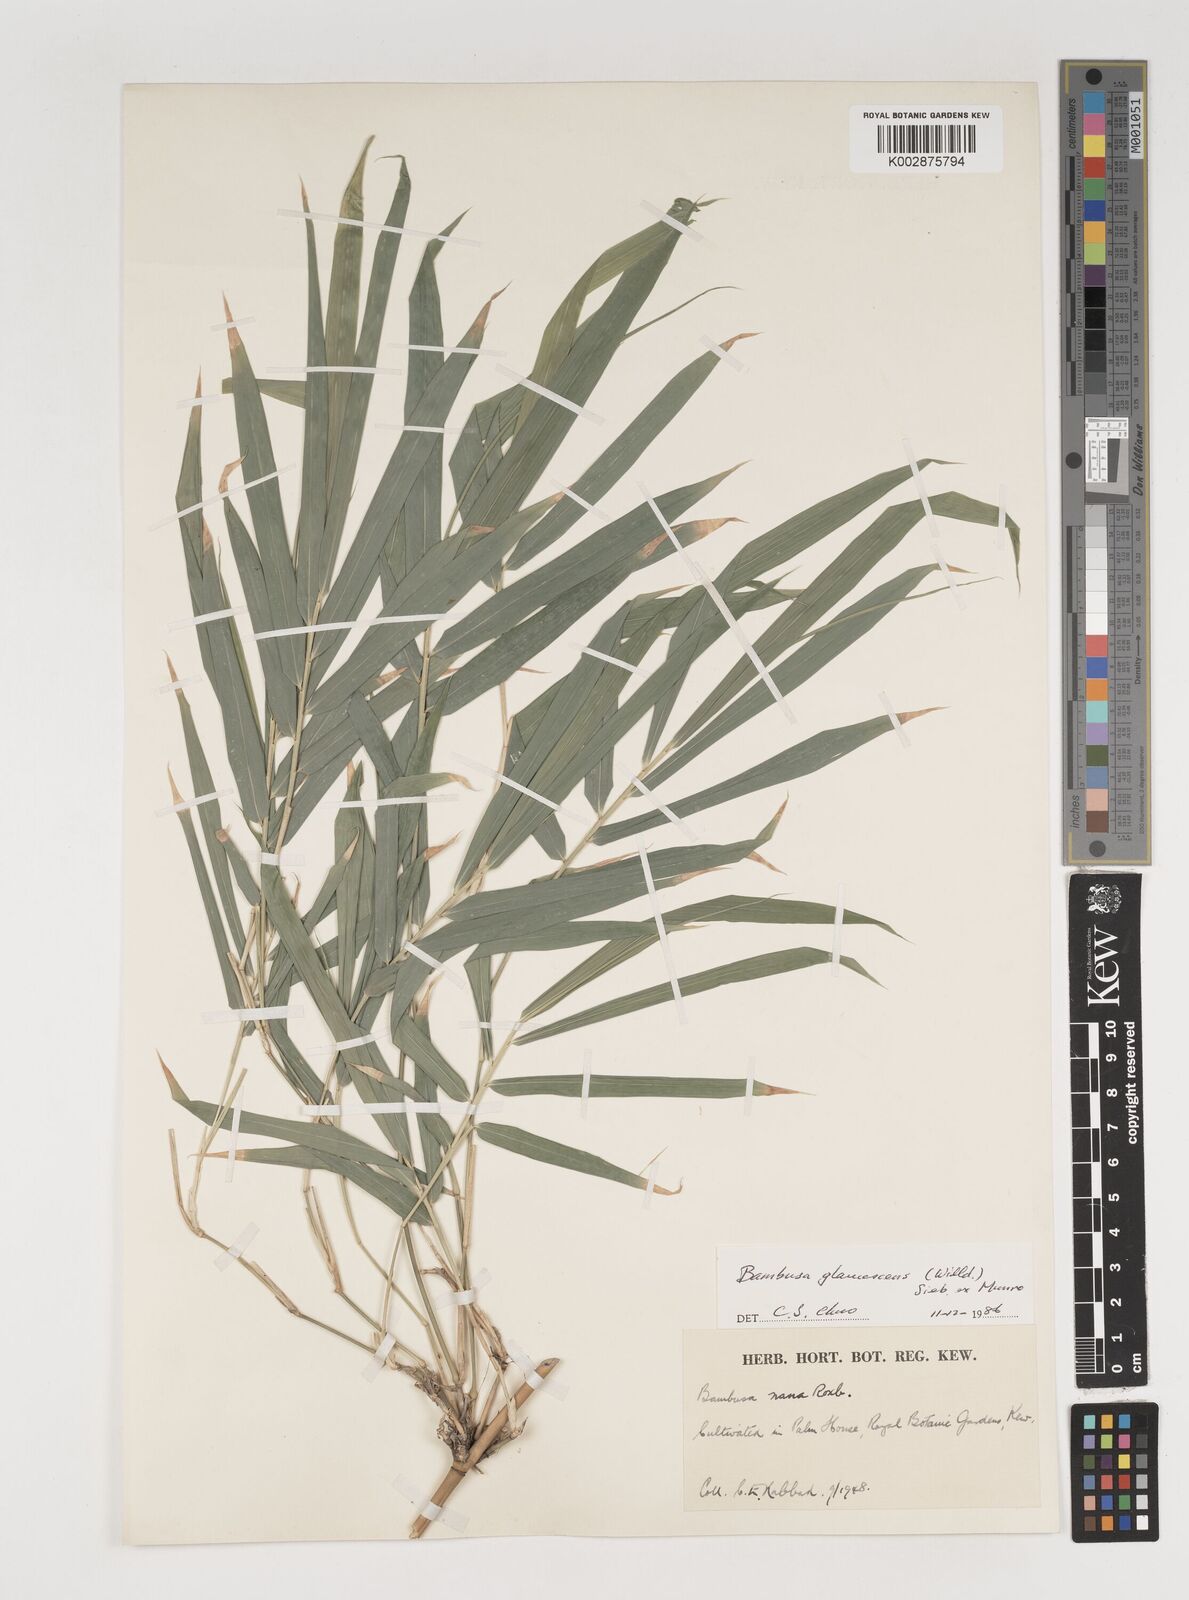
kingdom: Plantae
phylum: Tracheophyta
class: Liliopsida
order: Poales
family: Poaceae
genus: Bambusa
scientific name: Bambusa multiplex
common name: Hedge bamboo
